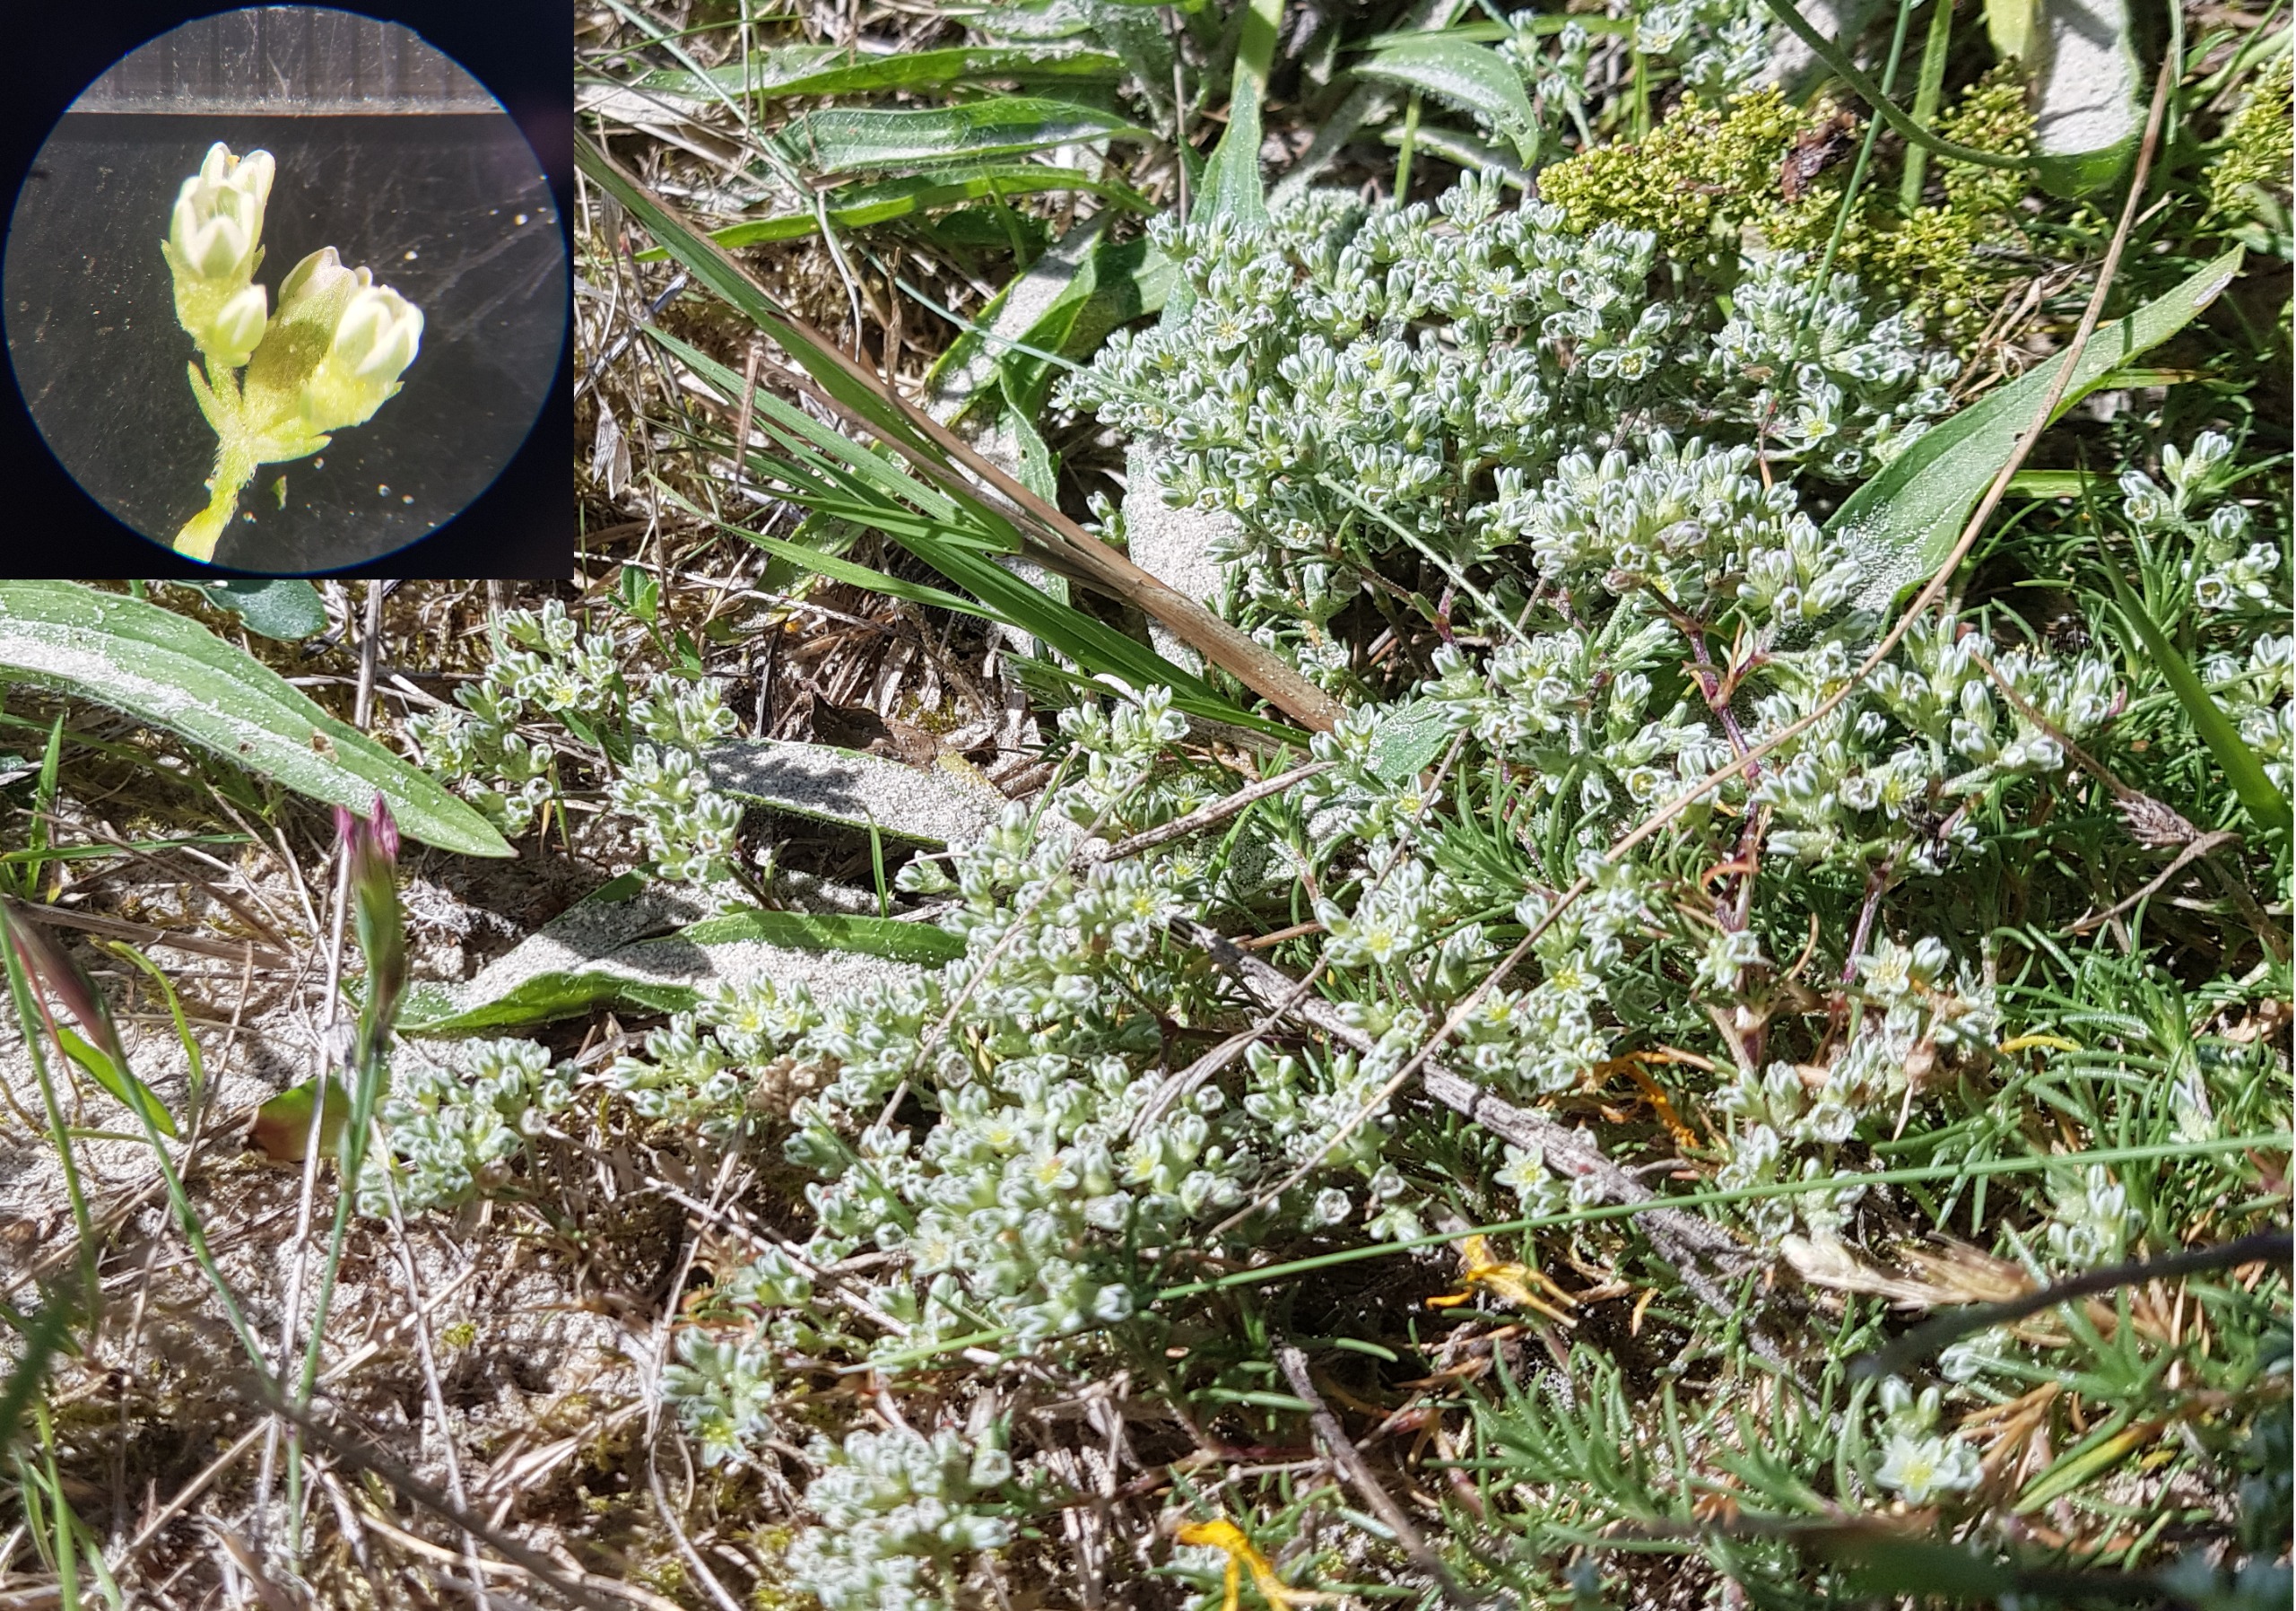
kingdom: Plantae
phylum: Tracheophyta
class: Magnoliopsida
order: Caryophyllales
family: Caryophyllaceae
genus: Scleranthus
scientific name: Scleranthus perennis
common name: Flerårig knavel
